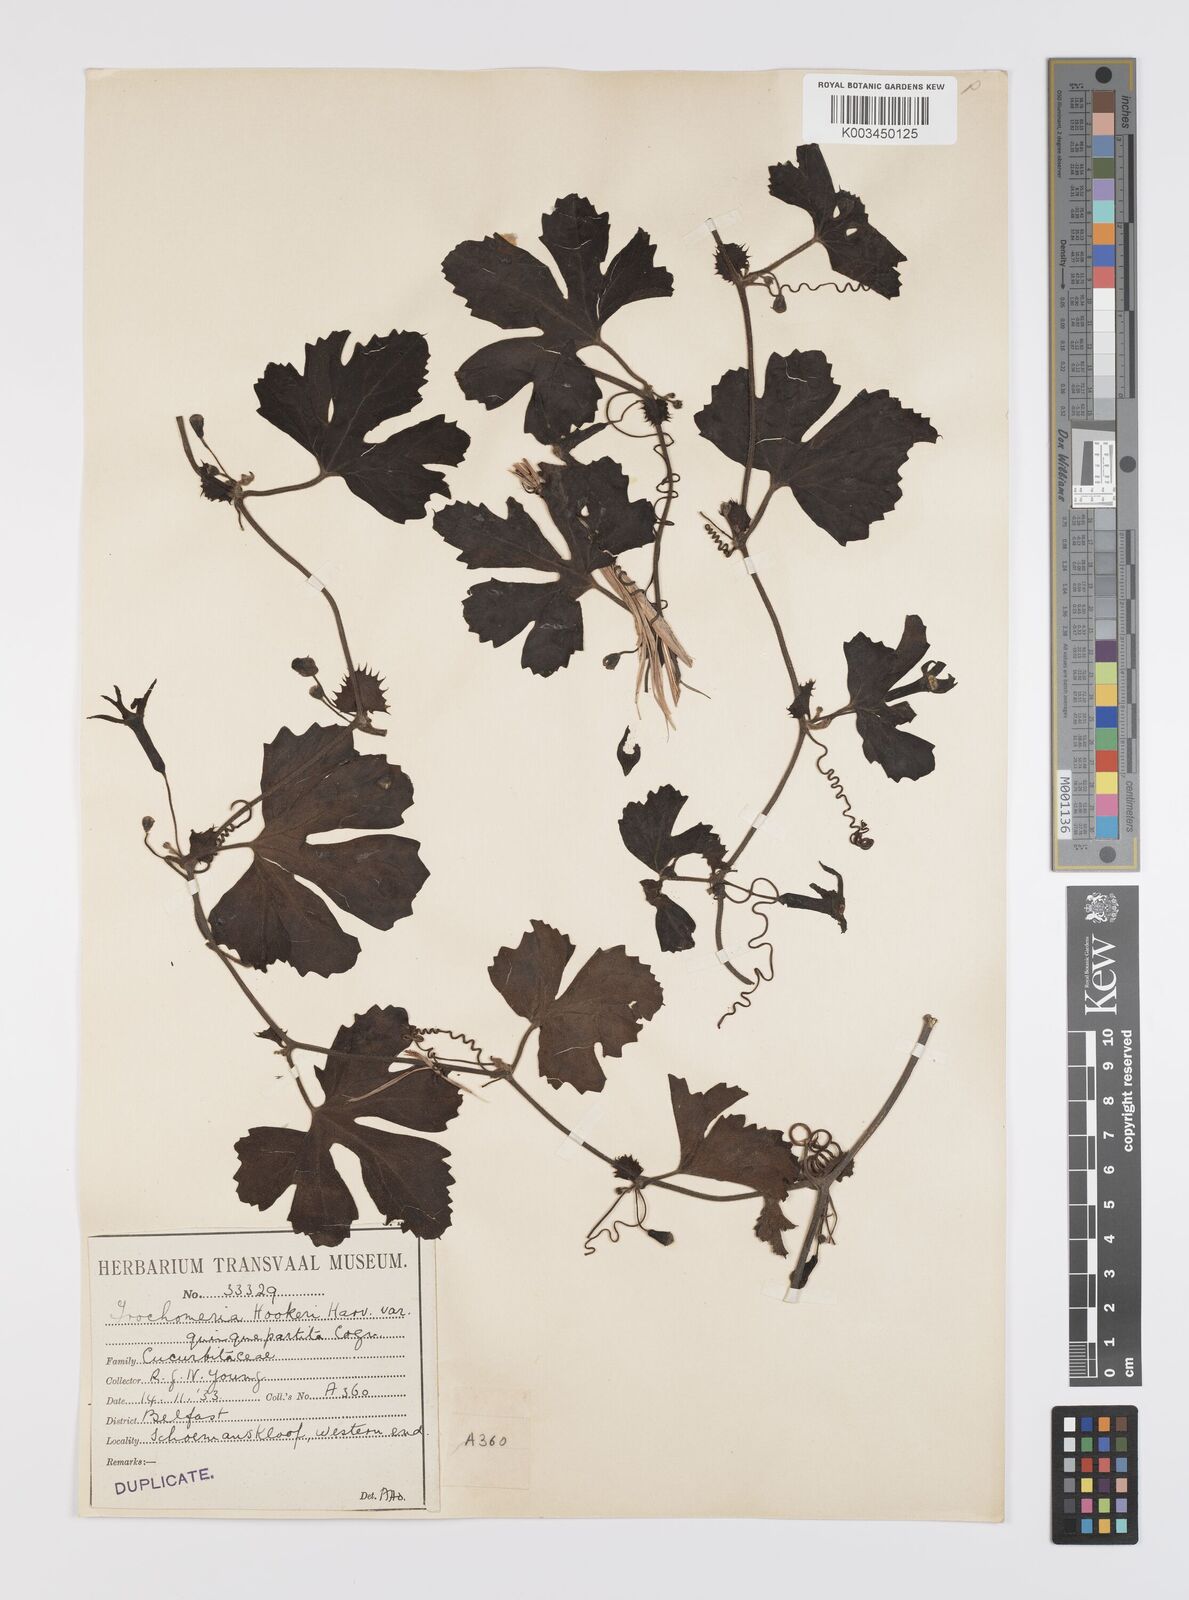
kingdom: Plantae
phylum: Tracheophyta
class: Magnoliopsida
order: Cucurbitales
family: Cucurbitaceae
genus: Trochomeria
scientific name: Trochomeria hookeri
